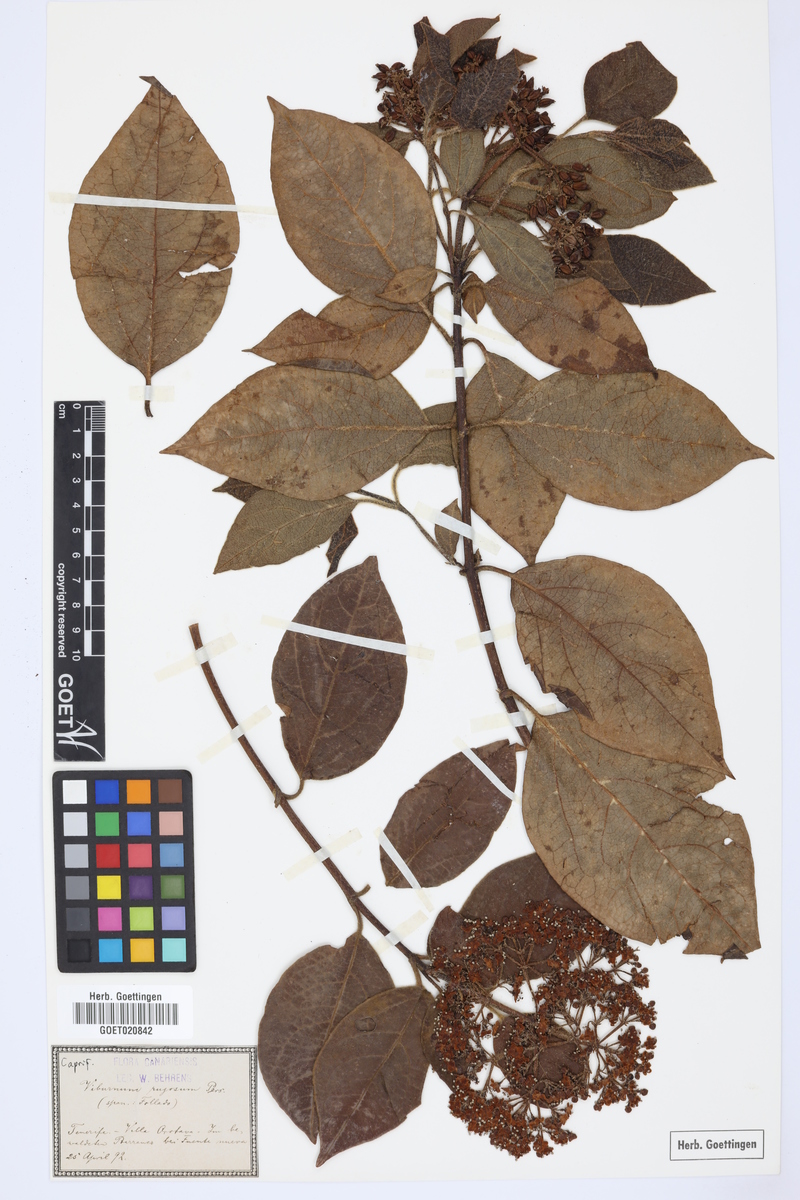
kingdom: Plantae
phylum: Tracheophyta
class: Magnoliopsida
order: Dipsacales
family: Viburnaceae
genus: Viburnum
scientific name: Viburnum rugosum
